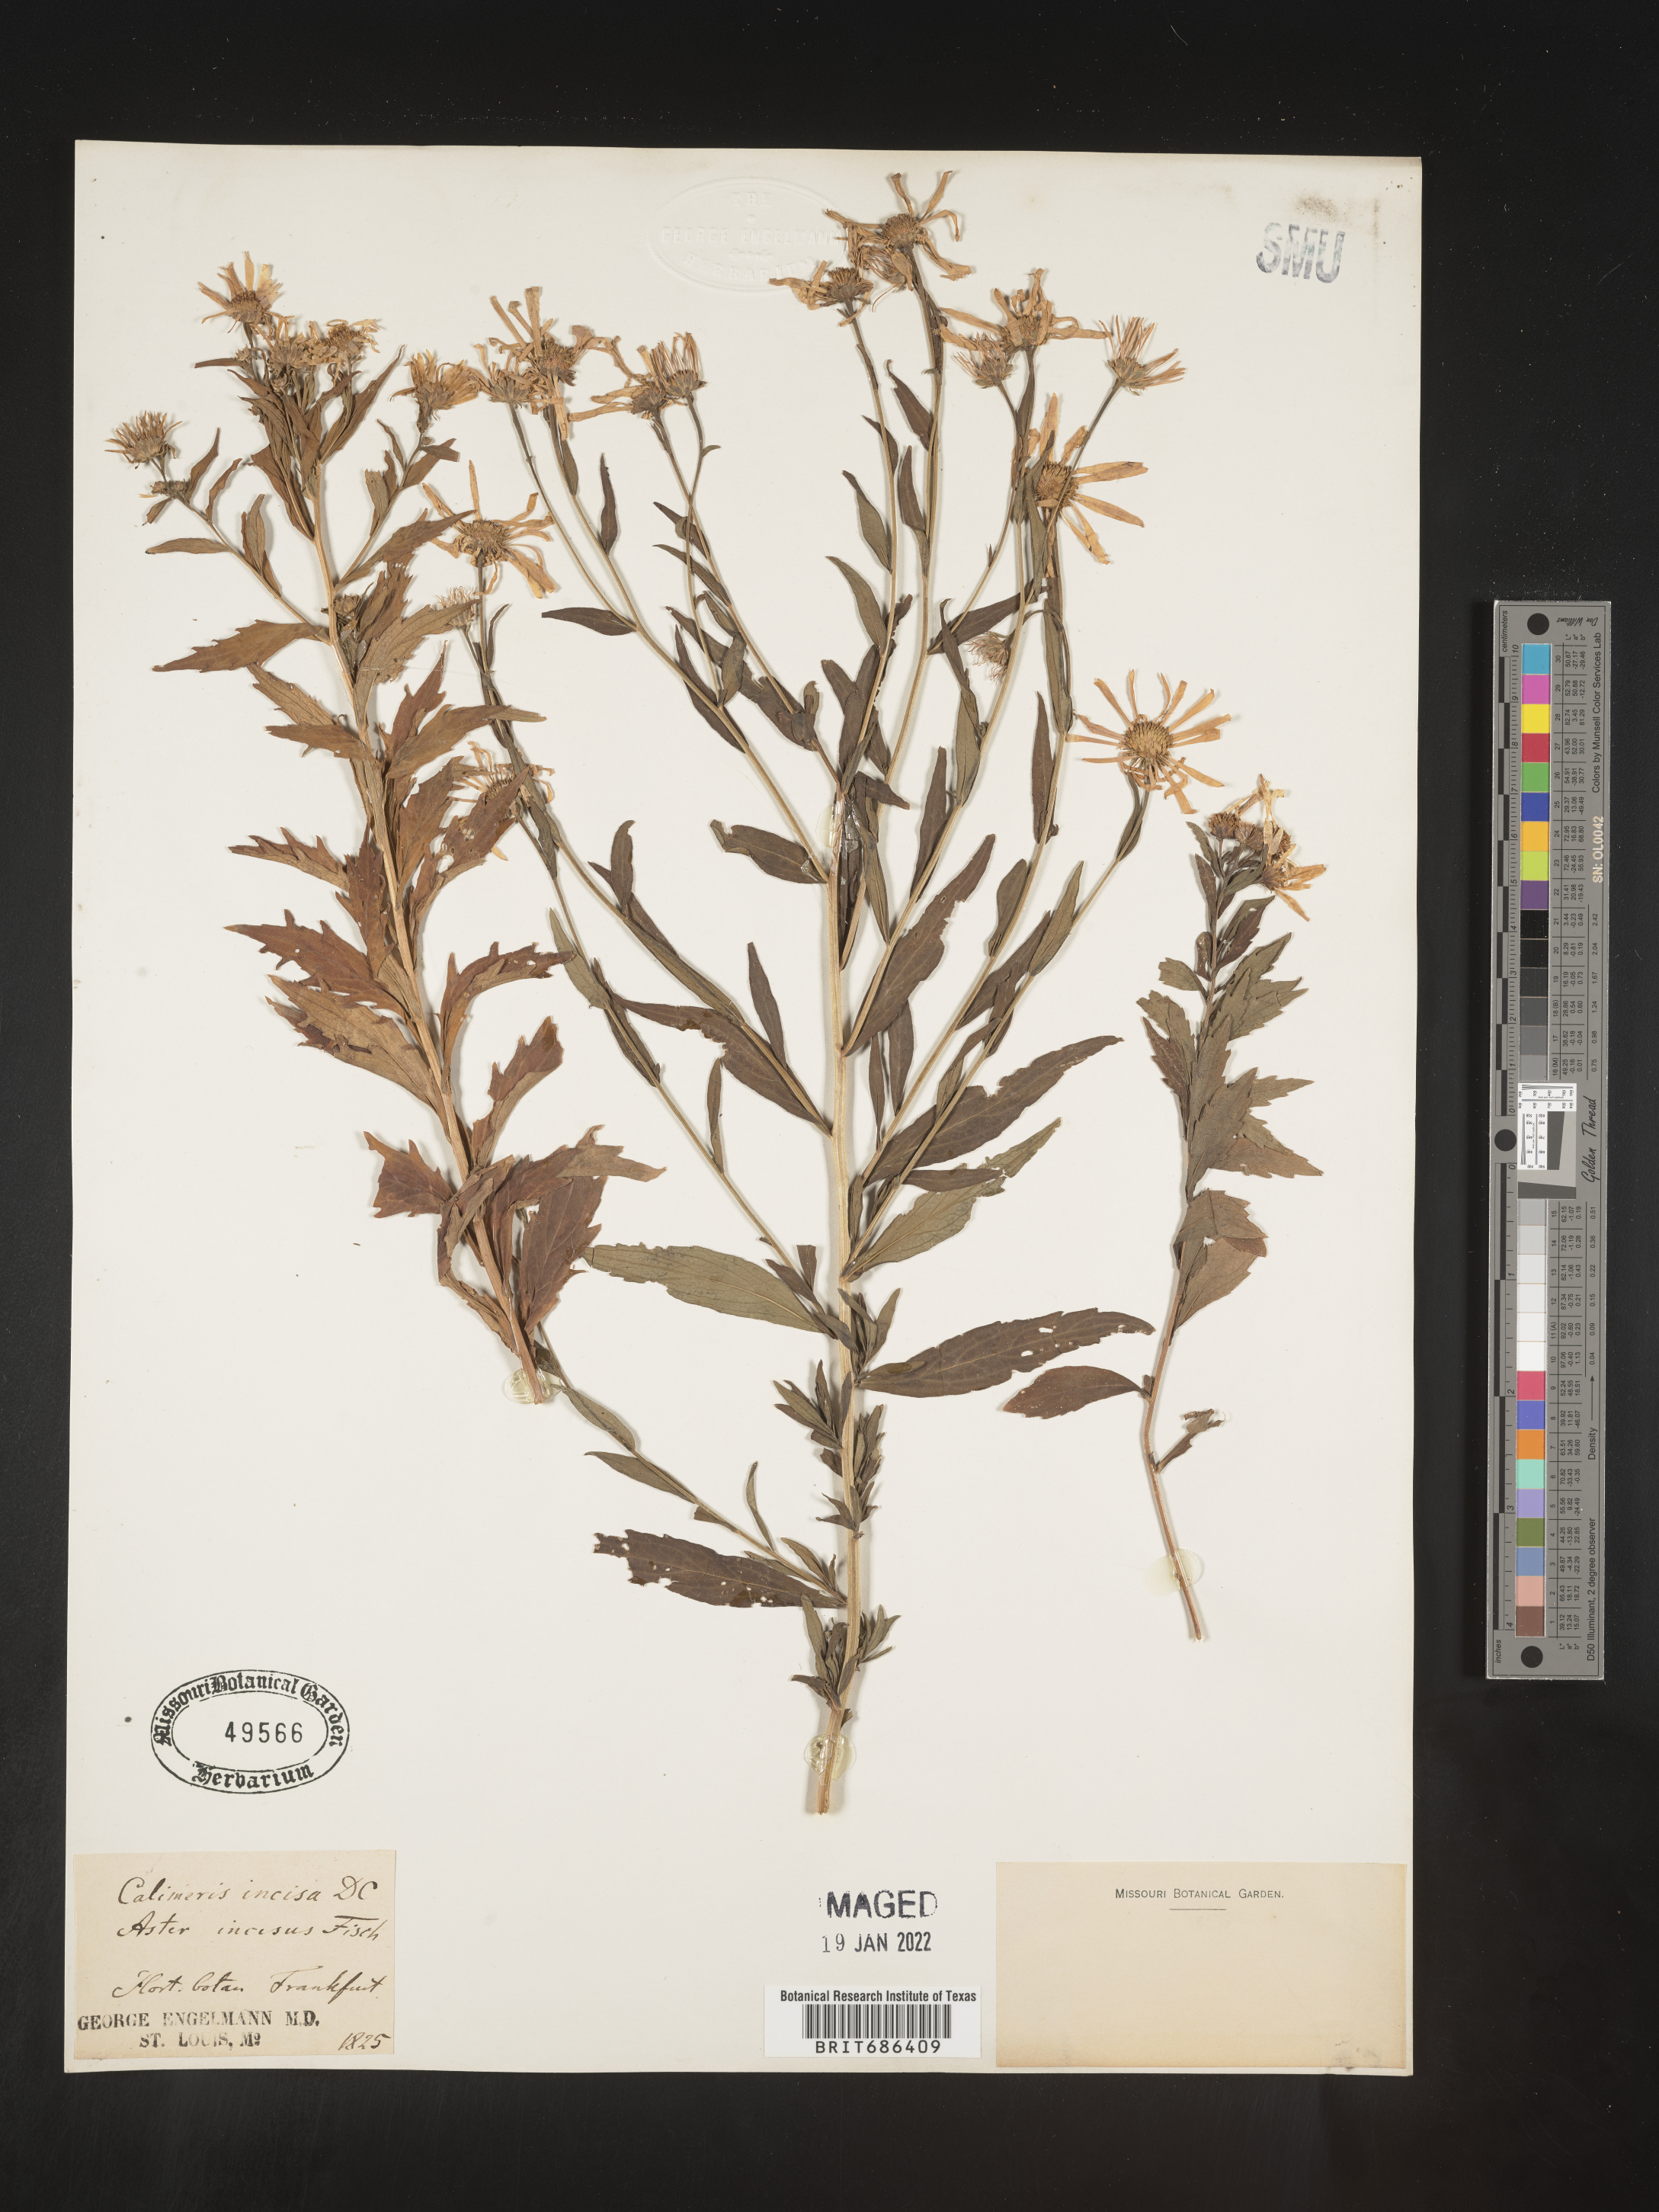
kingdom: Plantae
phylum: Tracheophyta
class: Magnoliopsida
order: Asterales
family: Asteraceae
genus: Calimeris
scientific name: Calimeris
